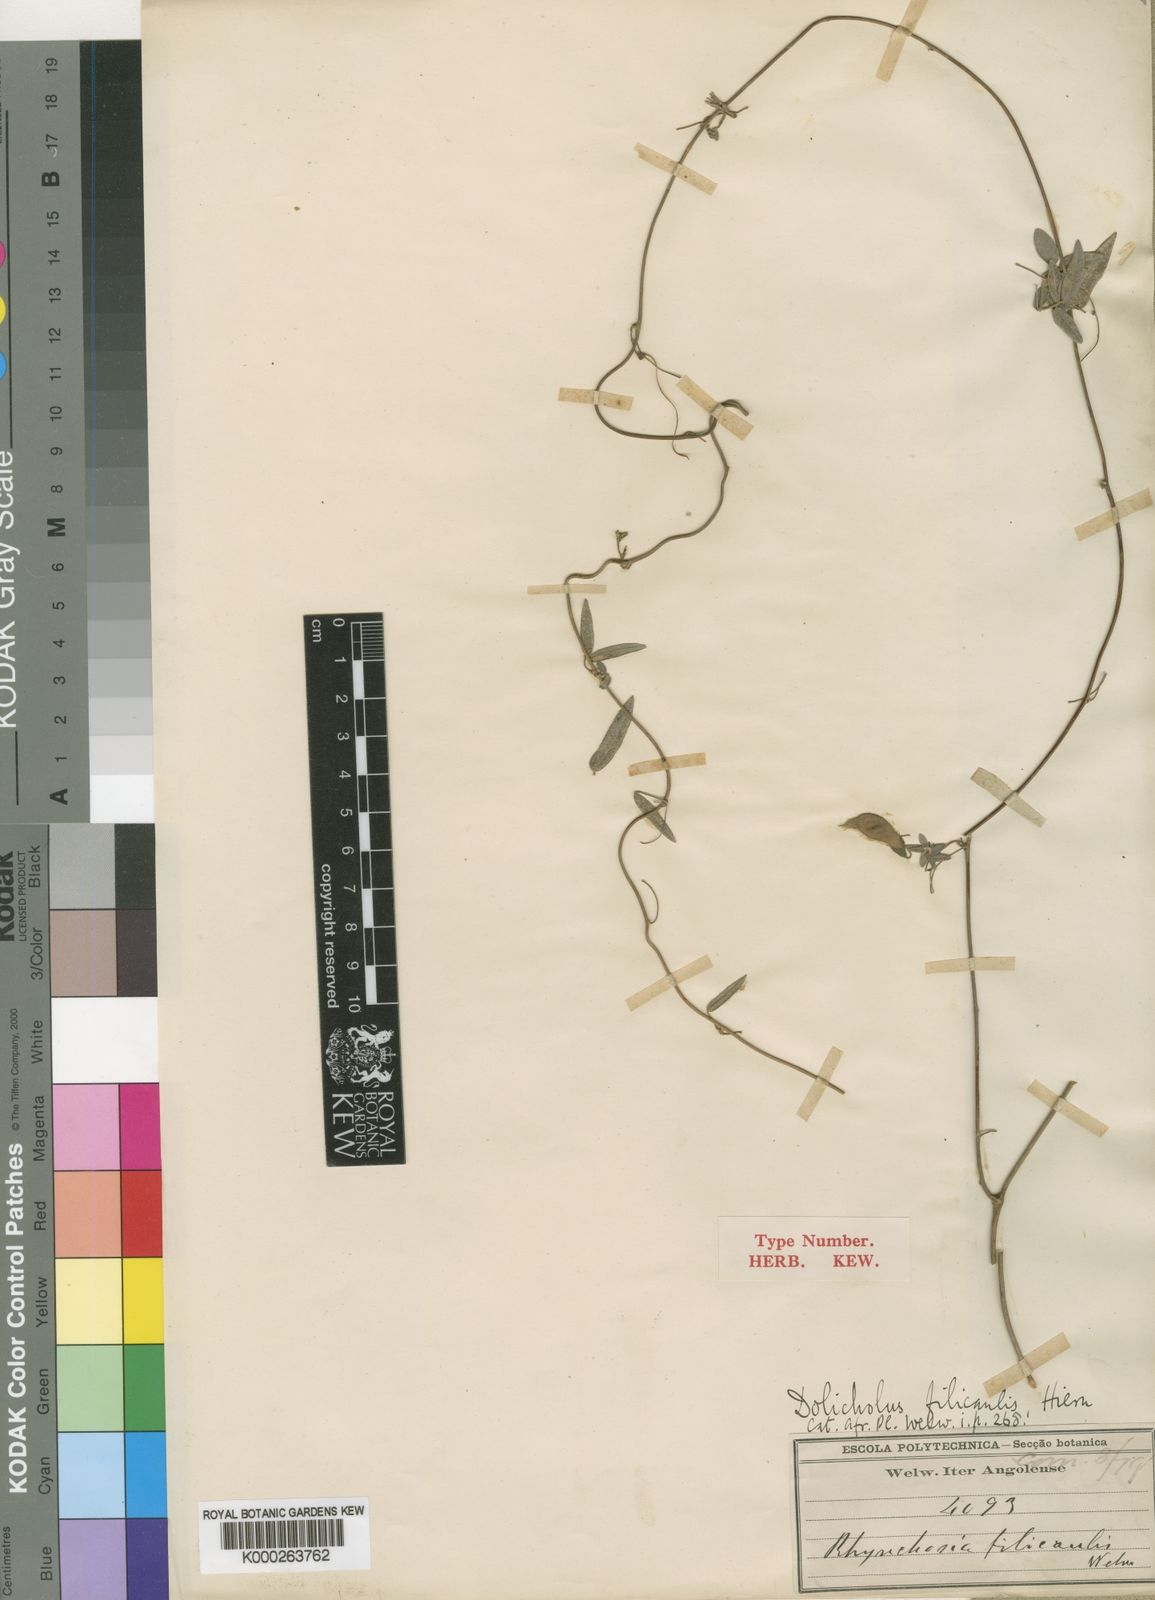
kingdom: Plantae
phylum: Tracheophyta
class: Magnoliopsida
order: Fabales
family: Fabaceae
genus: Rhynchosia
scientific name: Rhynchosia
